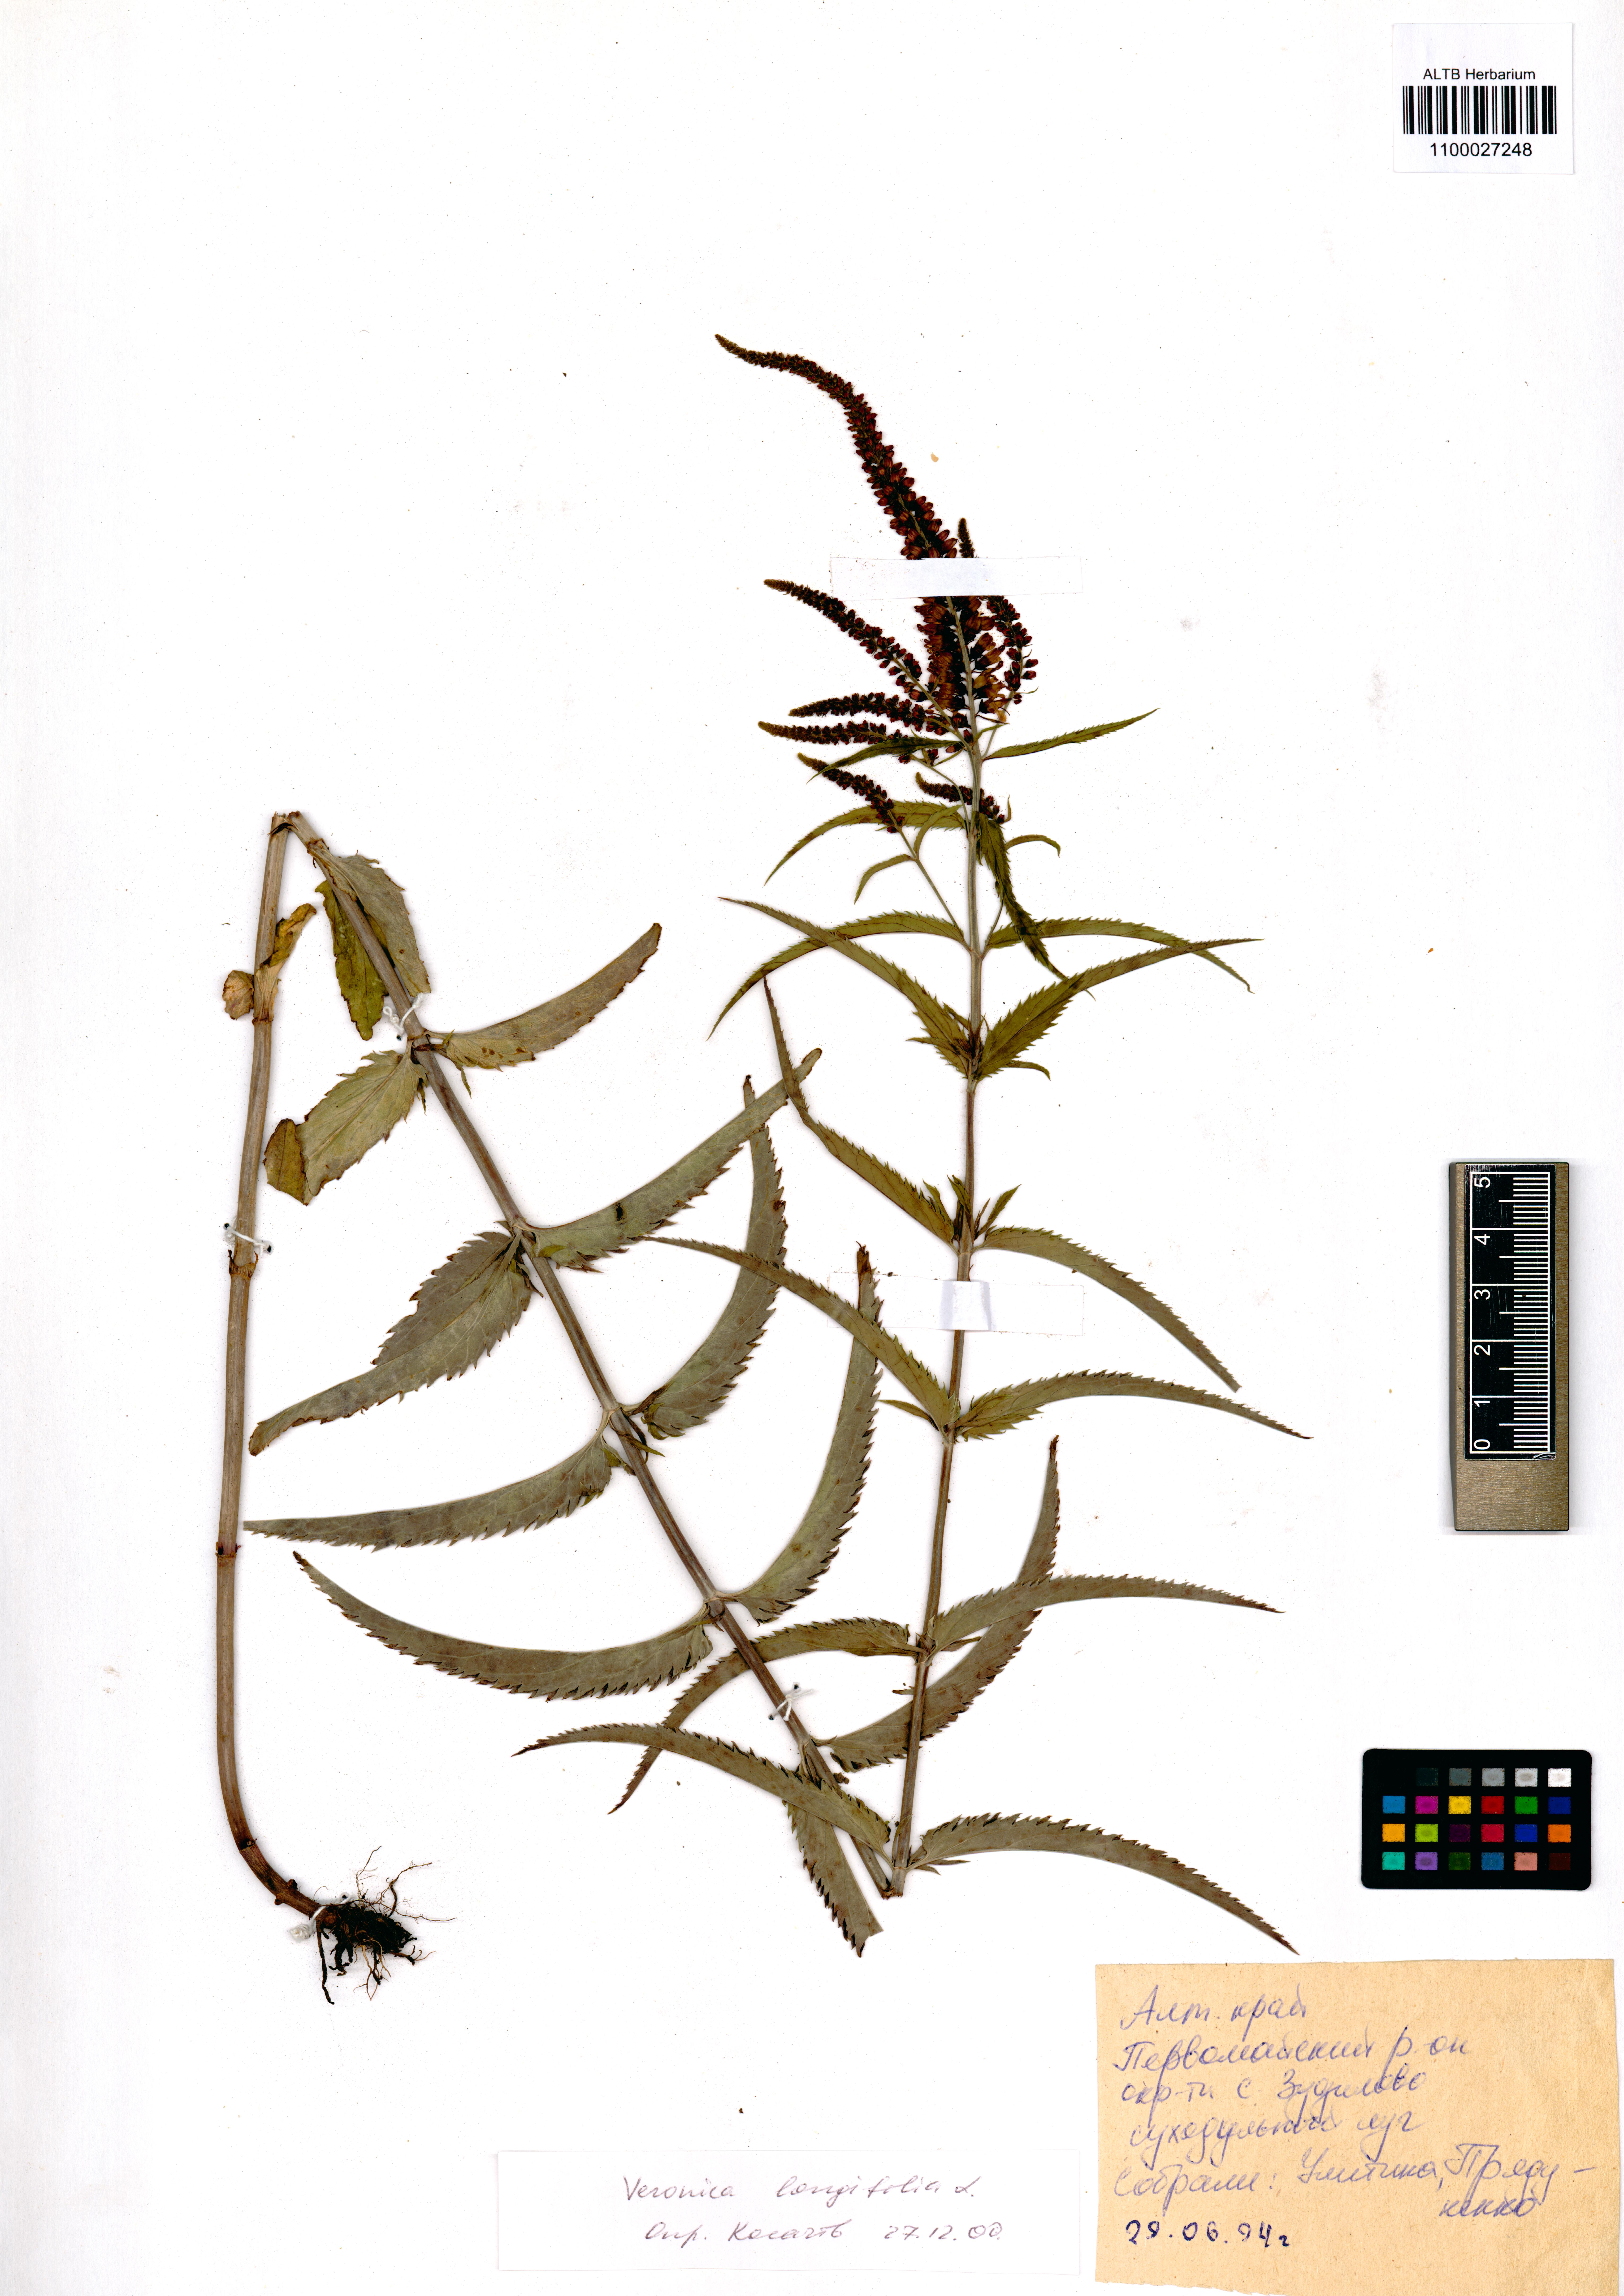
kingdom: Plantae
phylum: Tracheophyta
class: Magnoliopsida
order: Lamiales
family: Plantaginaceae
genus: Veronica
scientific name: Veronica longifolia
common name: Garden speedwell
